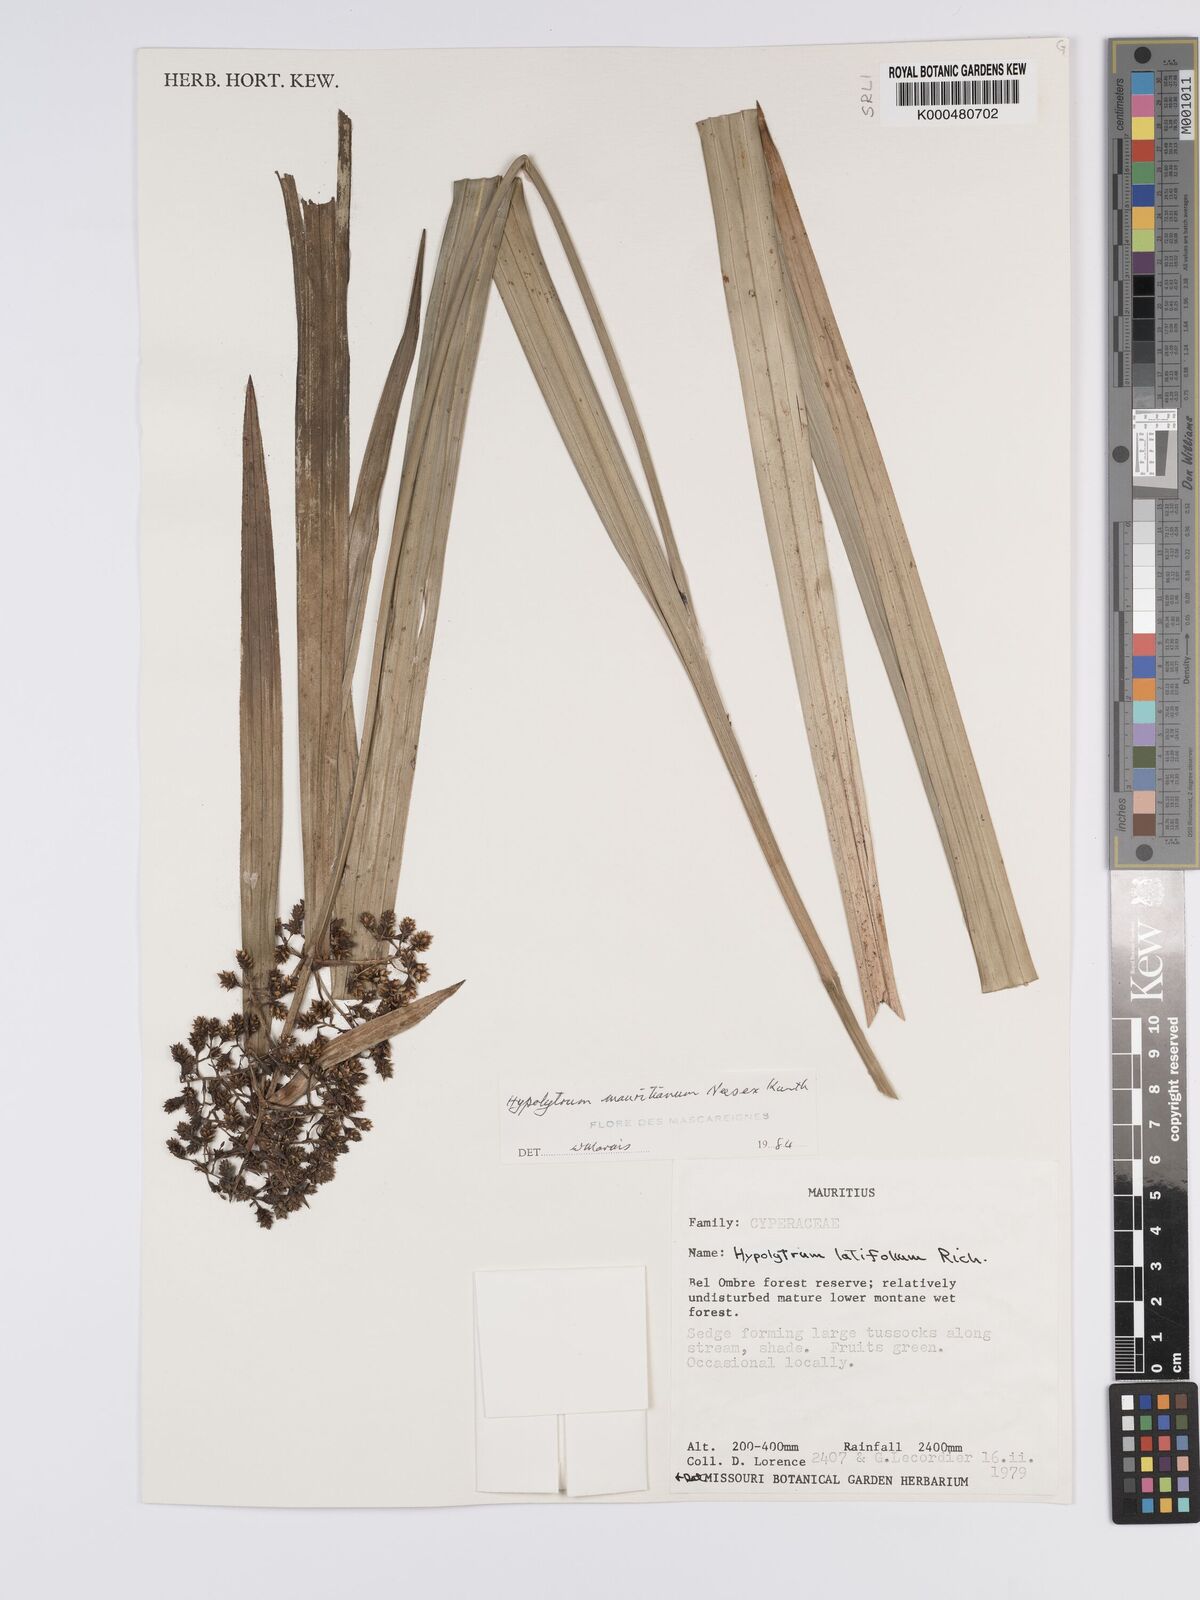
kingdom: Plantae
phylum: Tracheophyta
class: Liliopsida
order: Poales
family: Cyperaceae
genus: Hypolytrum
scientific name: Hypolytrum mauritianum
